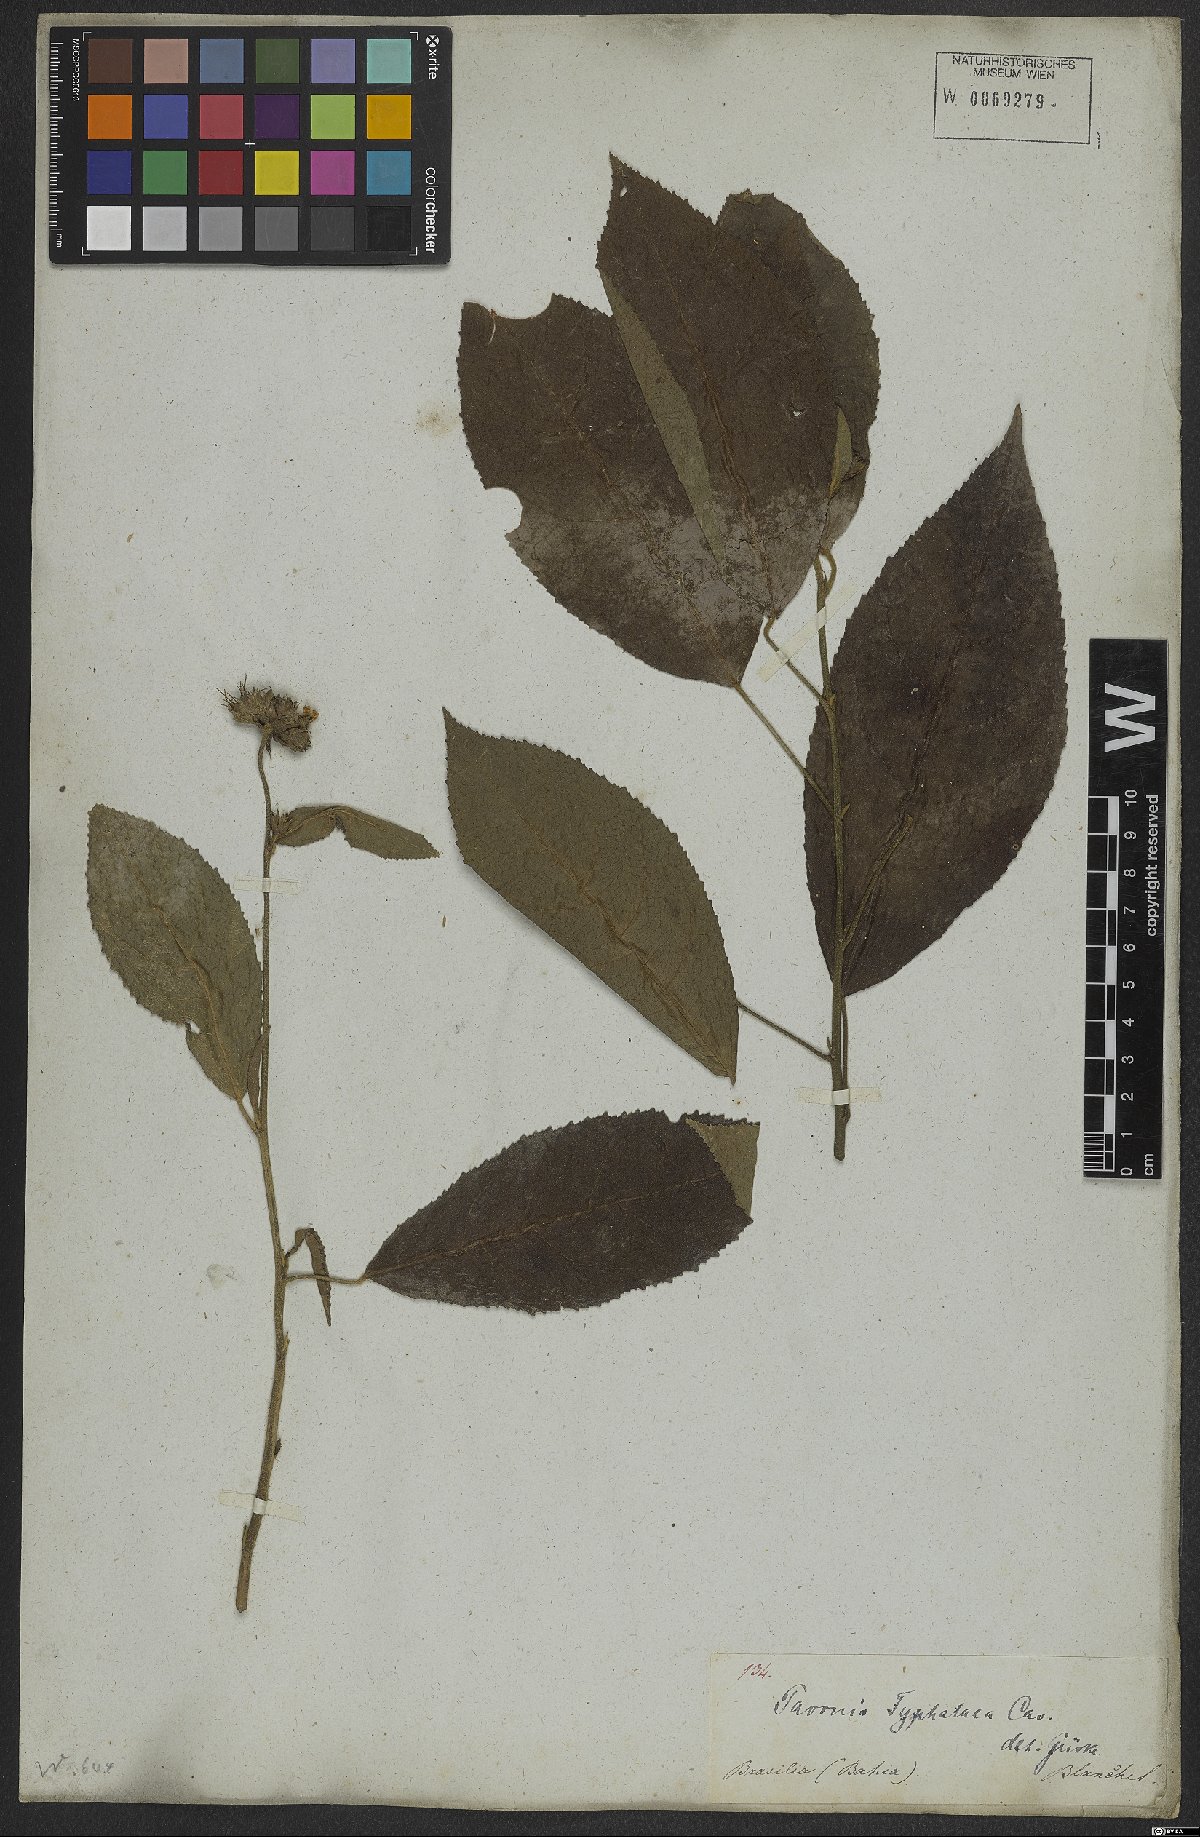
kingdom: Plantae
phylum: Tracheophyta
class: Magnoliopsida
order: Malvales
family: Malvaceae
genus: Pavonia
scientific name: Pavonia fruticosa
